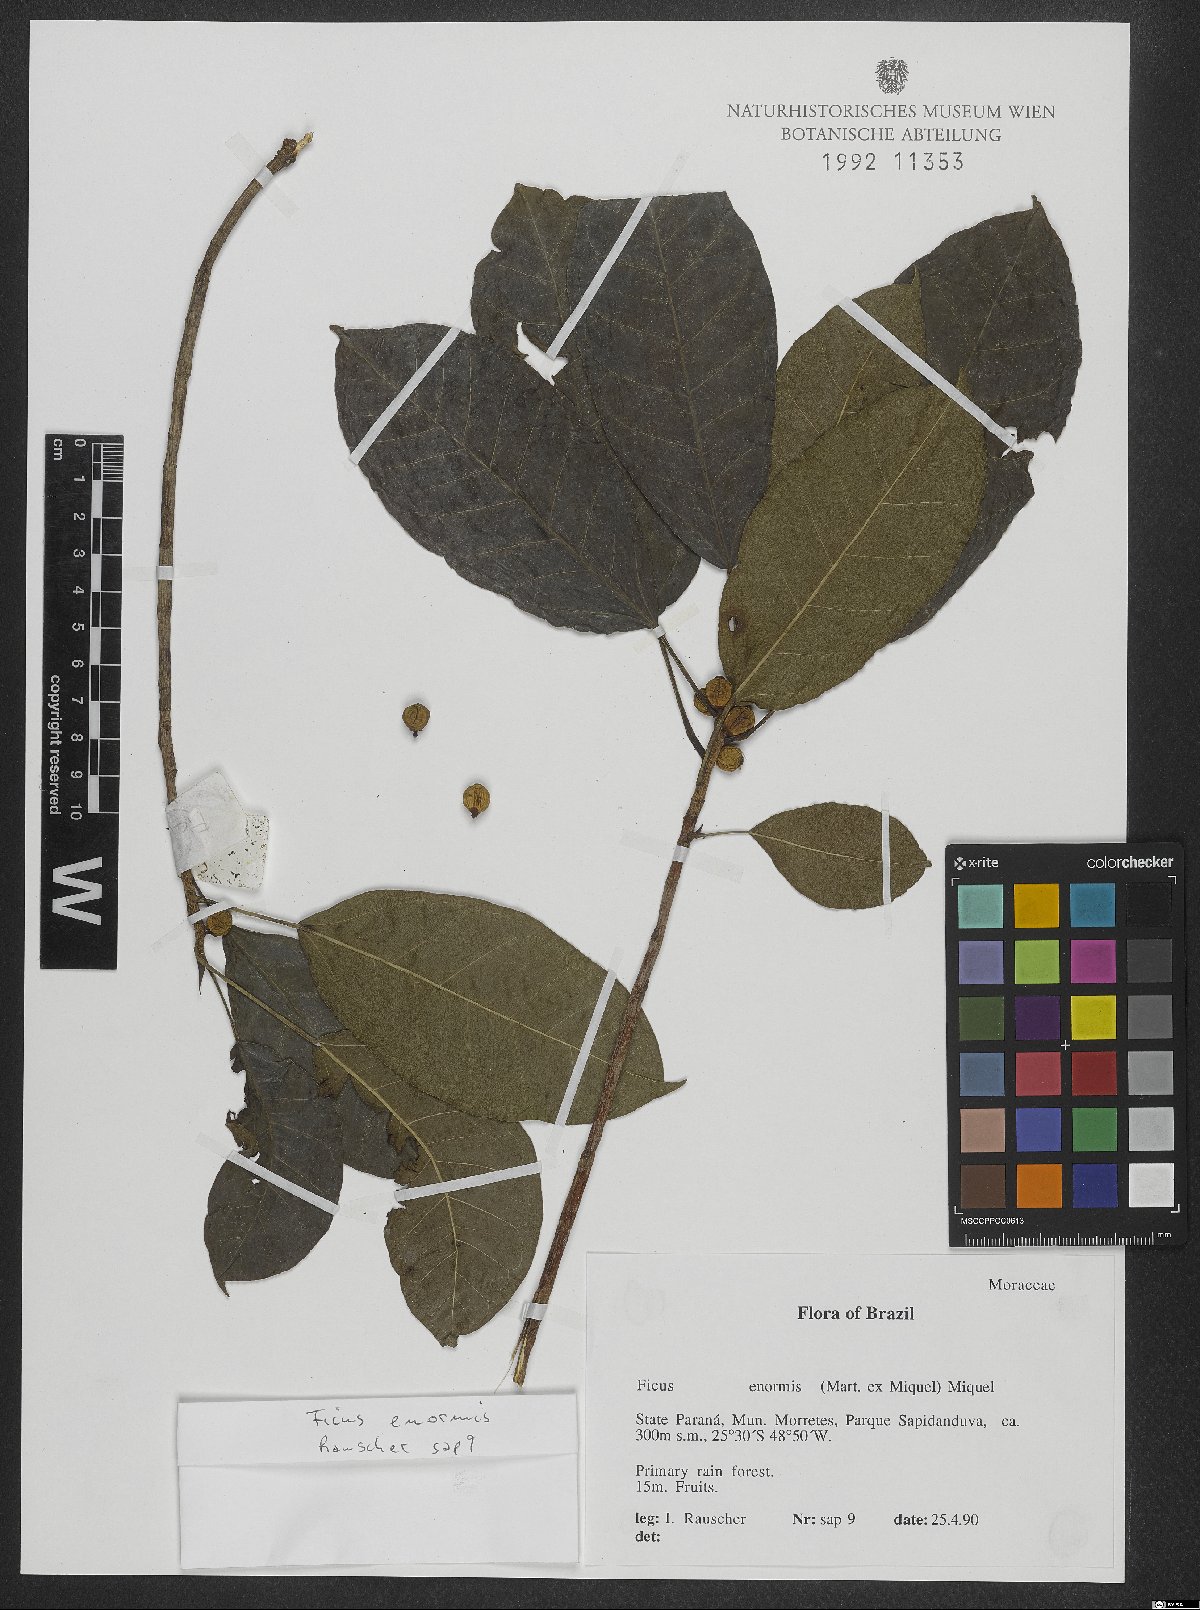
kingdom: Plantae
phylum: Tracheophyta
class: Magnoliopsida
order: Rosales
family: Moraceae
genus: Ficus
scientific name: Ficus enormis
